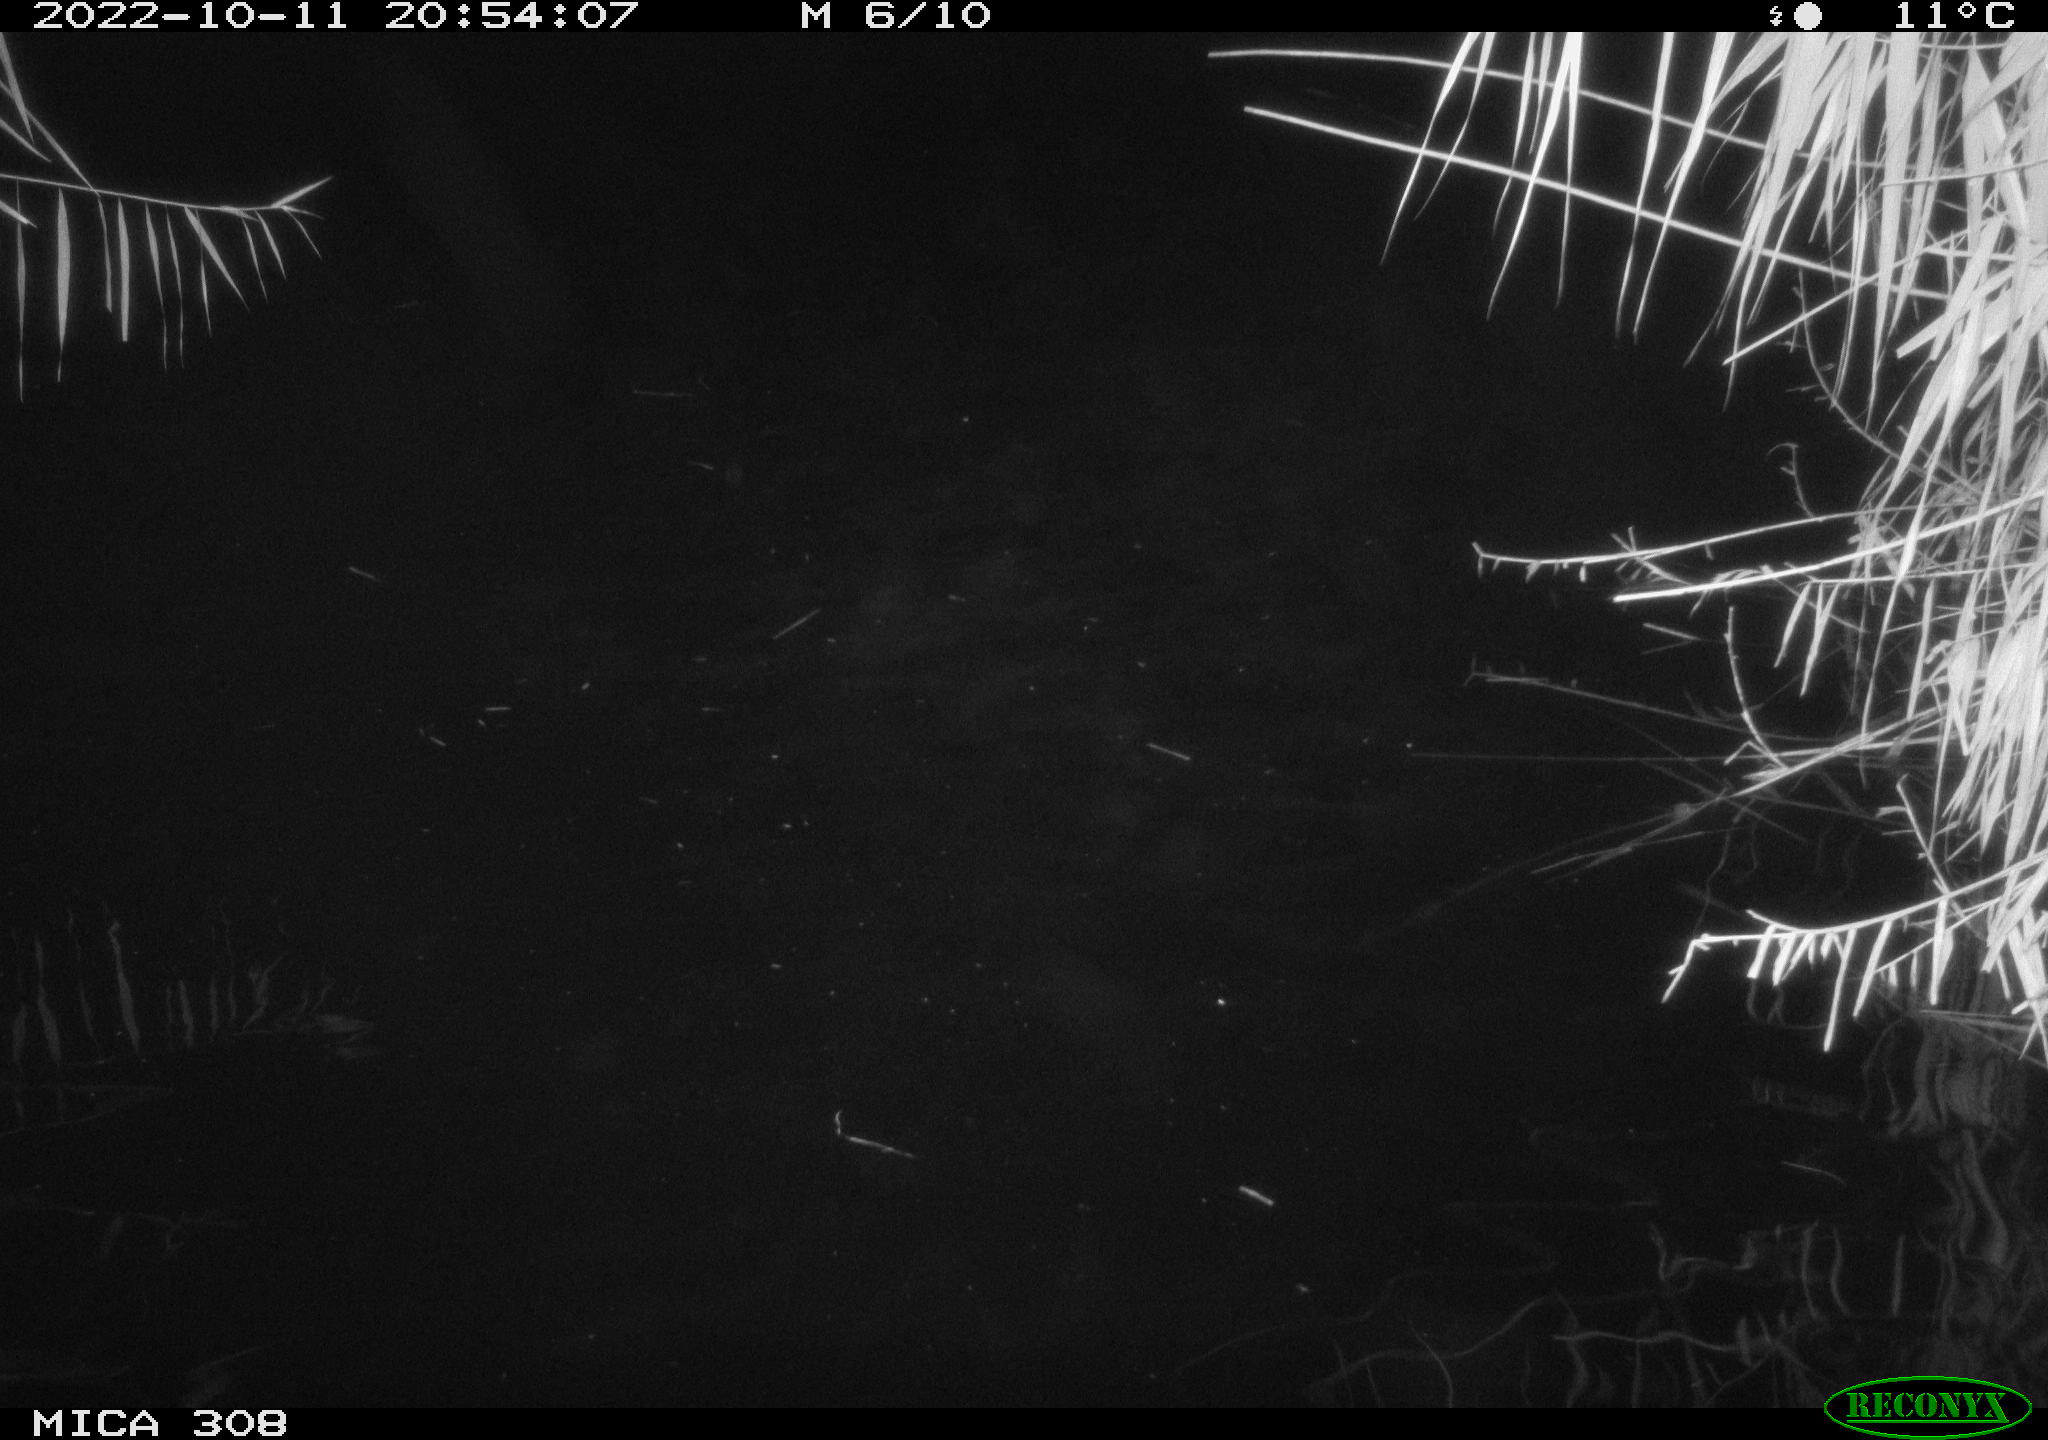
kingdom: Animalia
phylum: Chordata
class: Mammalia
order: Rodentia
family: Cricetidae
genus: Ondatra
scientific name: Ondatra zibethicus
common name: Muskrat
